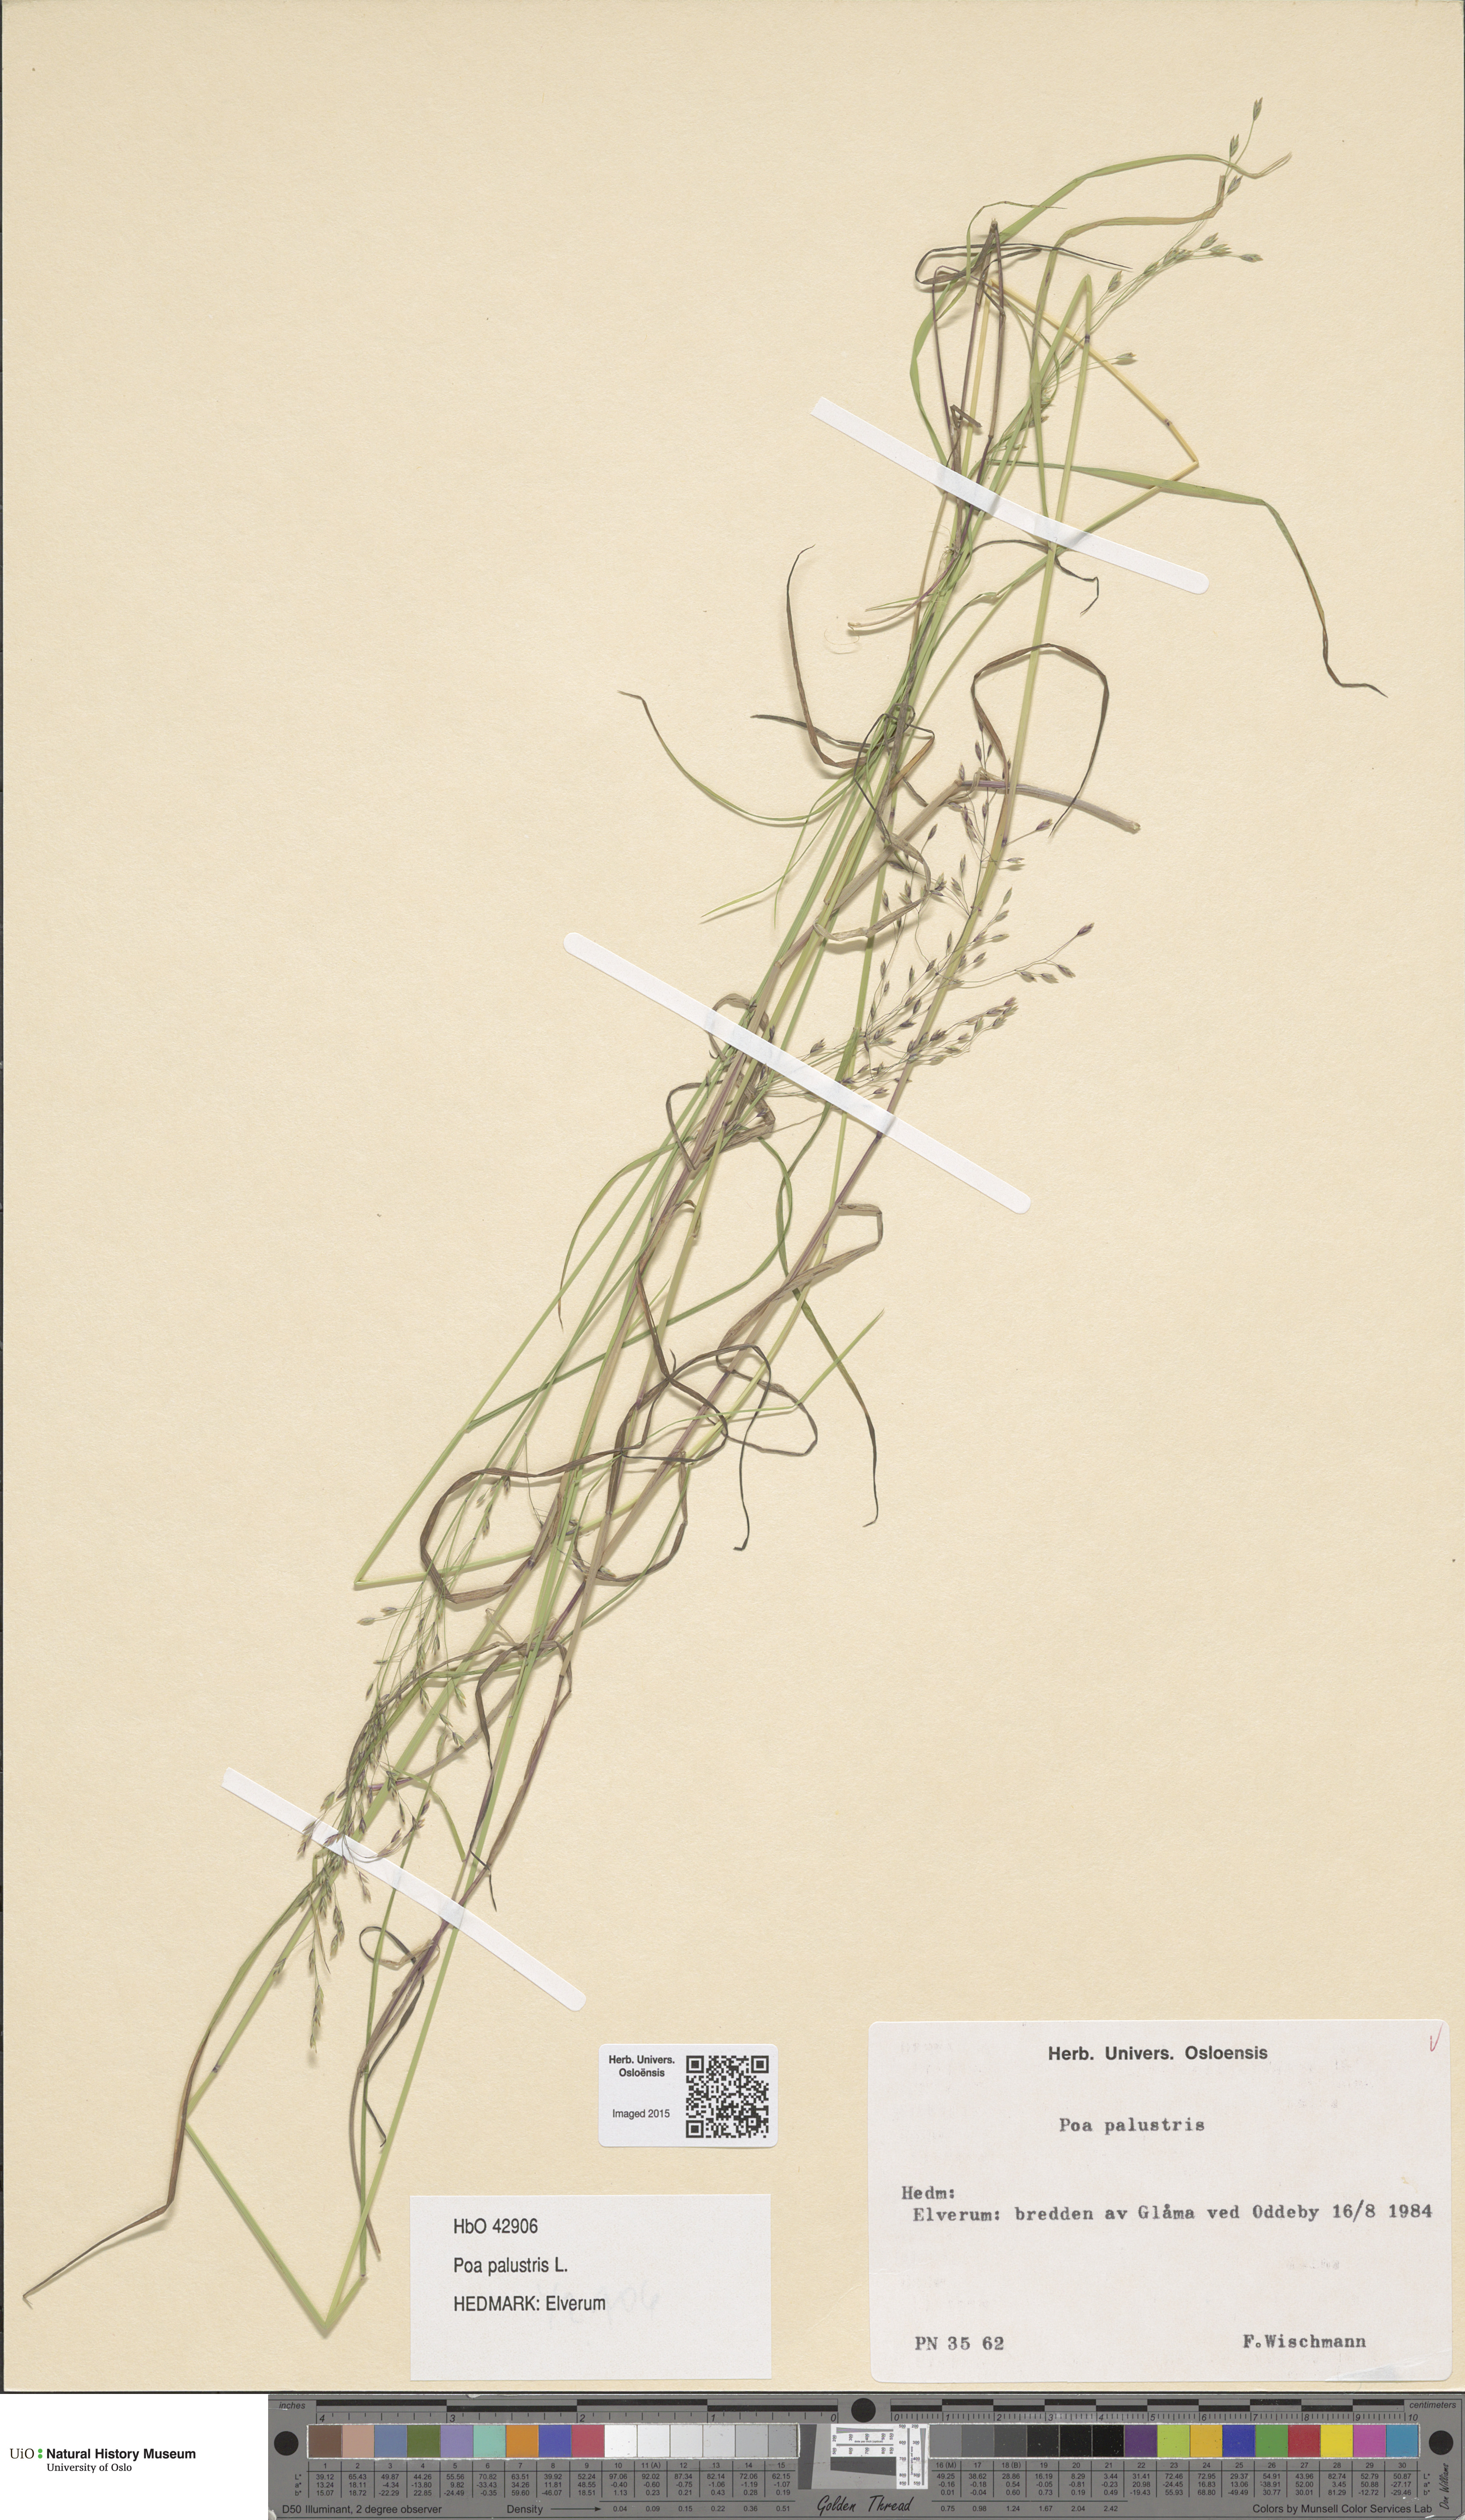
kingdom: Plantae
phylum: Tracheophyta
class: Liliopsida
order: Poales
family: Poaceae
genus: Poa
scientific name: Poa palustris
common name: Swamp meadow-grass
